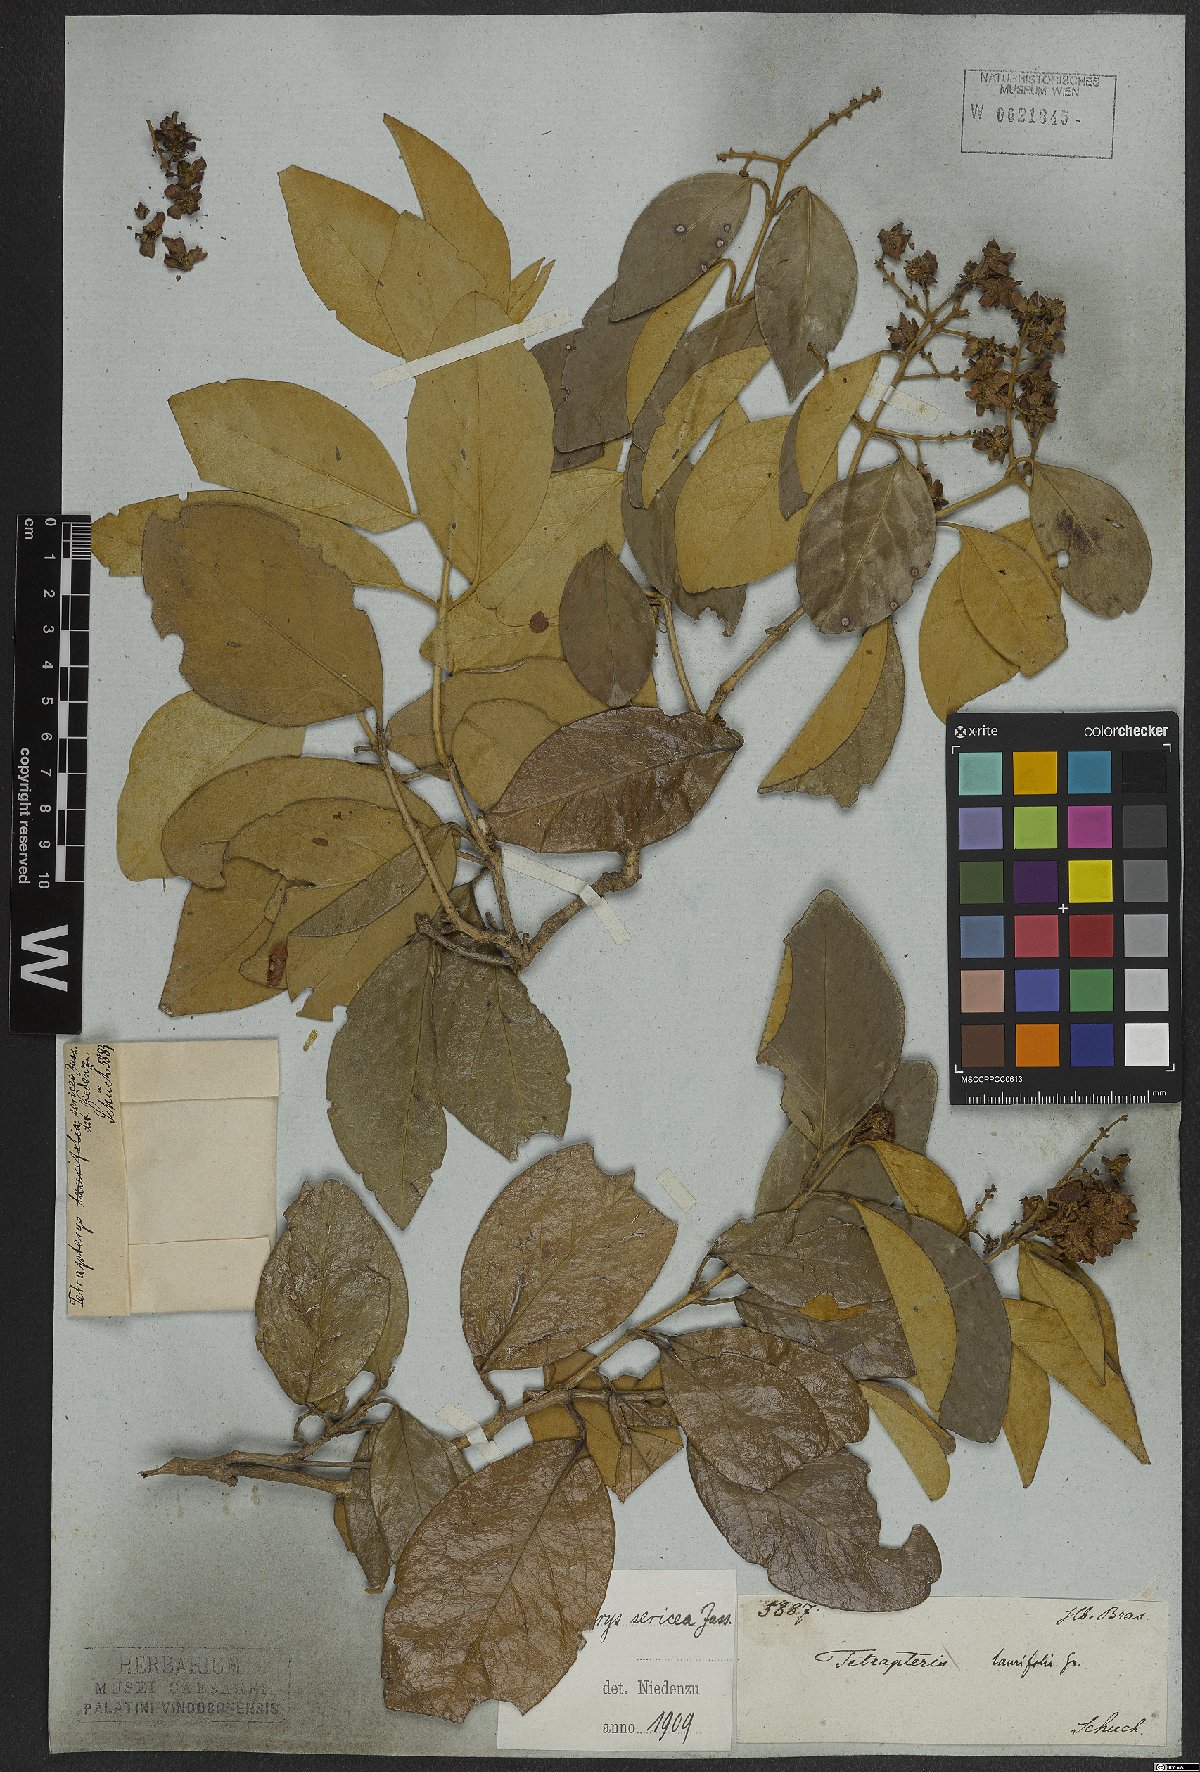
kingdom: Plantae
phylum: Tracheophyta
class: Magnoliopsida
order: Malpighiales
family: Malpighiaceae
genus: Niedenzuella
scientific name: Niedenzuella sericea
